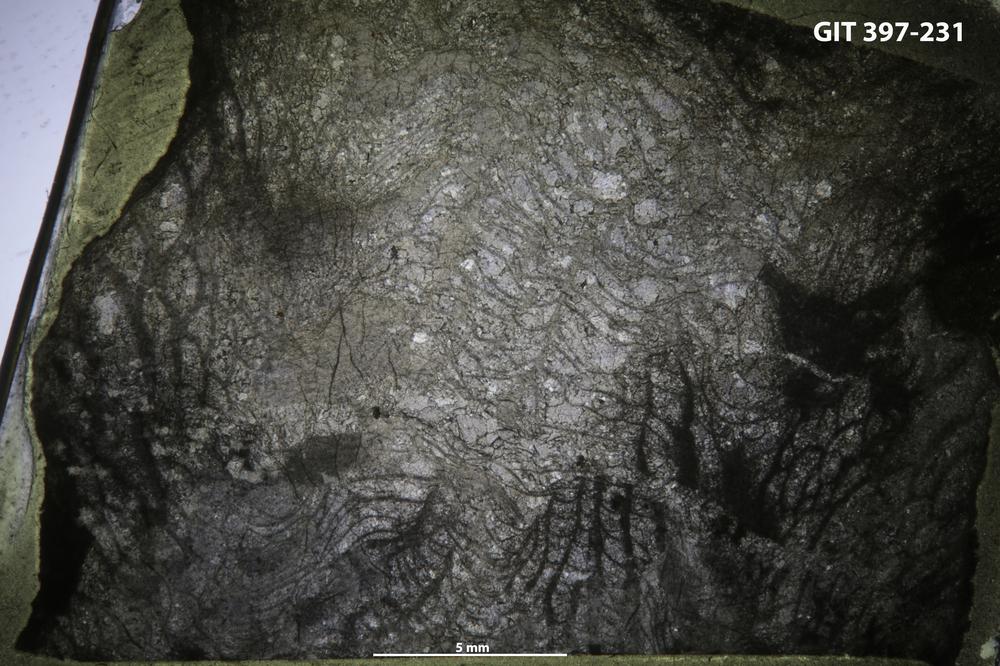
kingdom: Animalia
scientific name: Animalia
